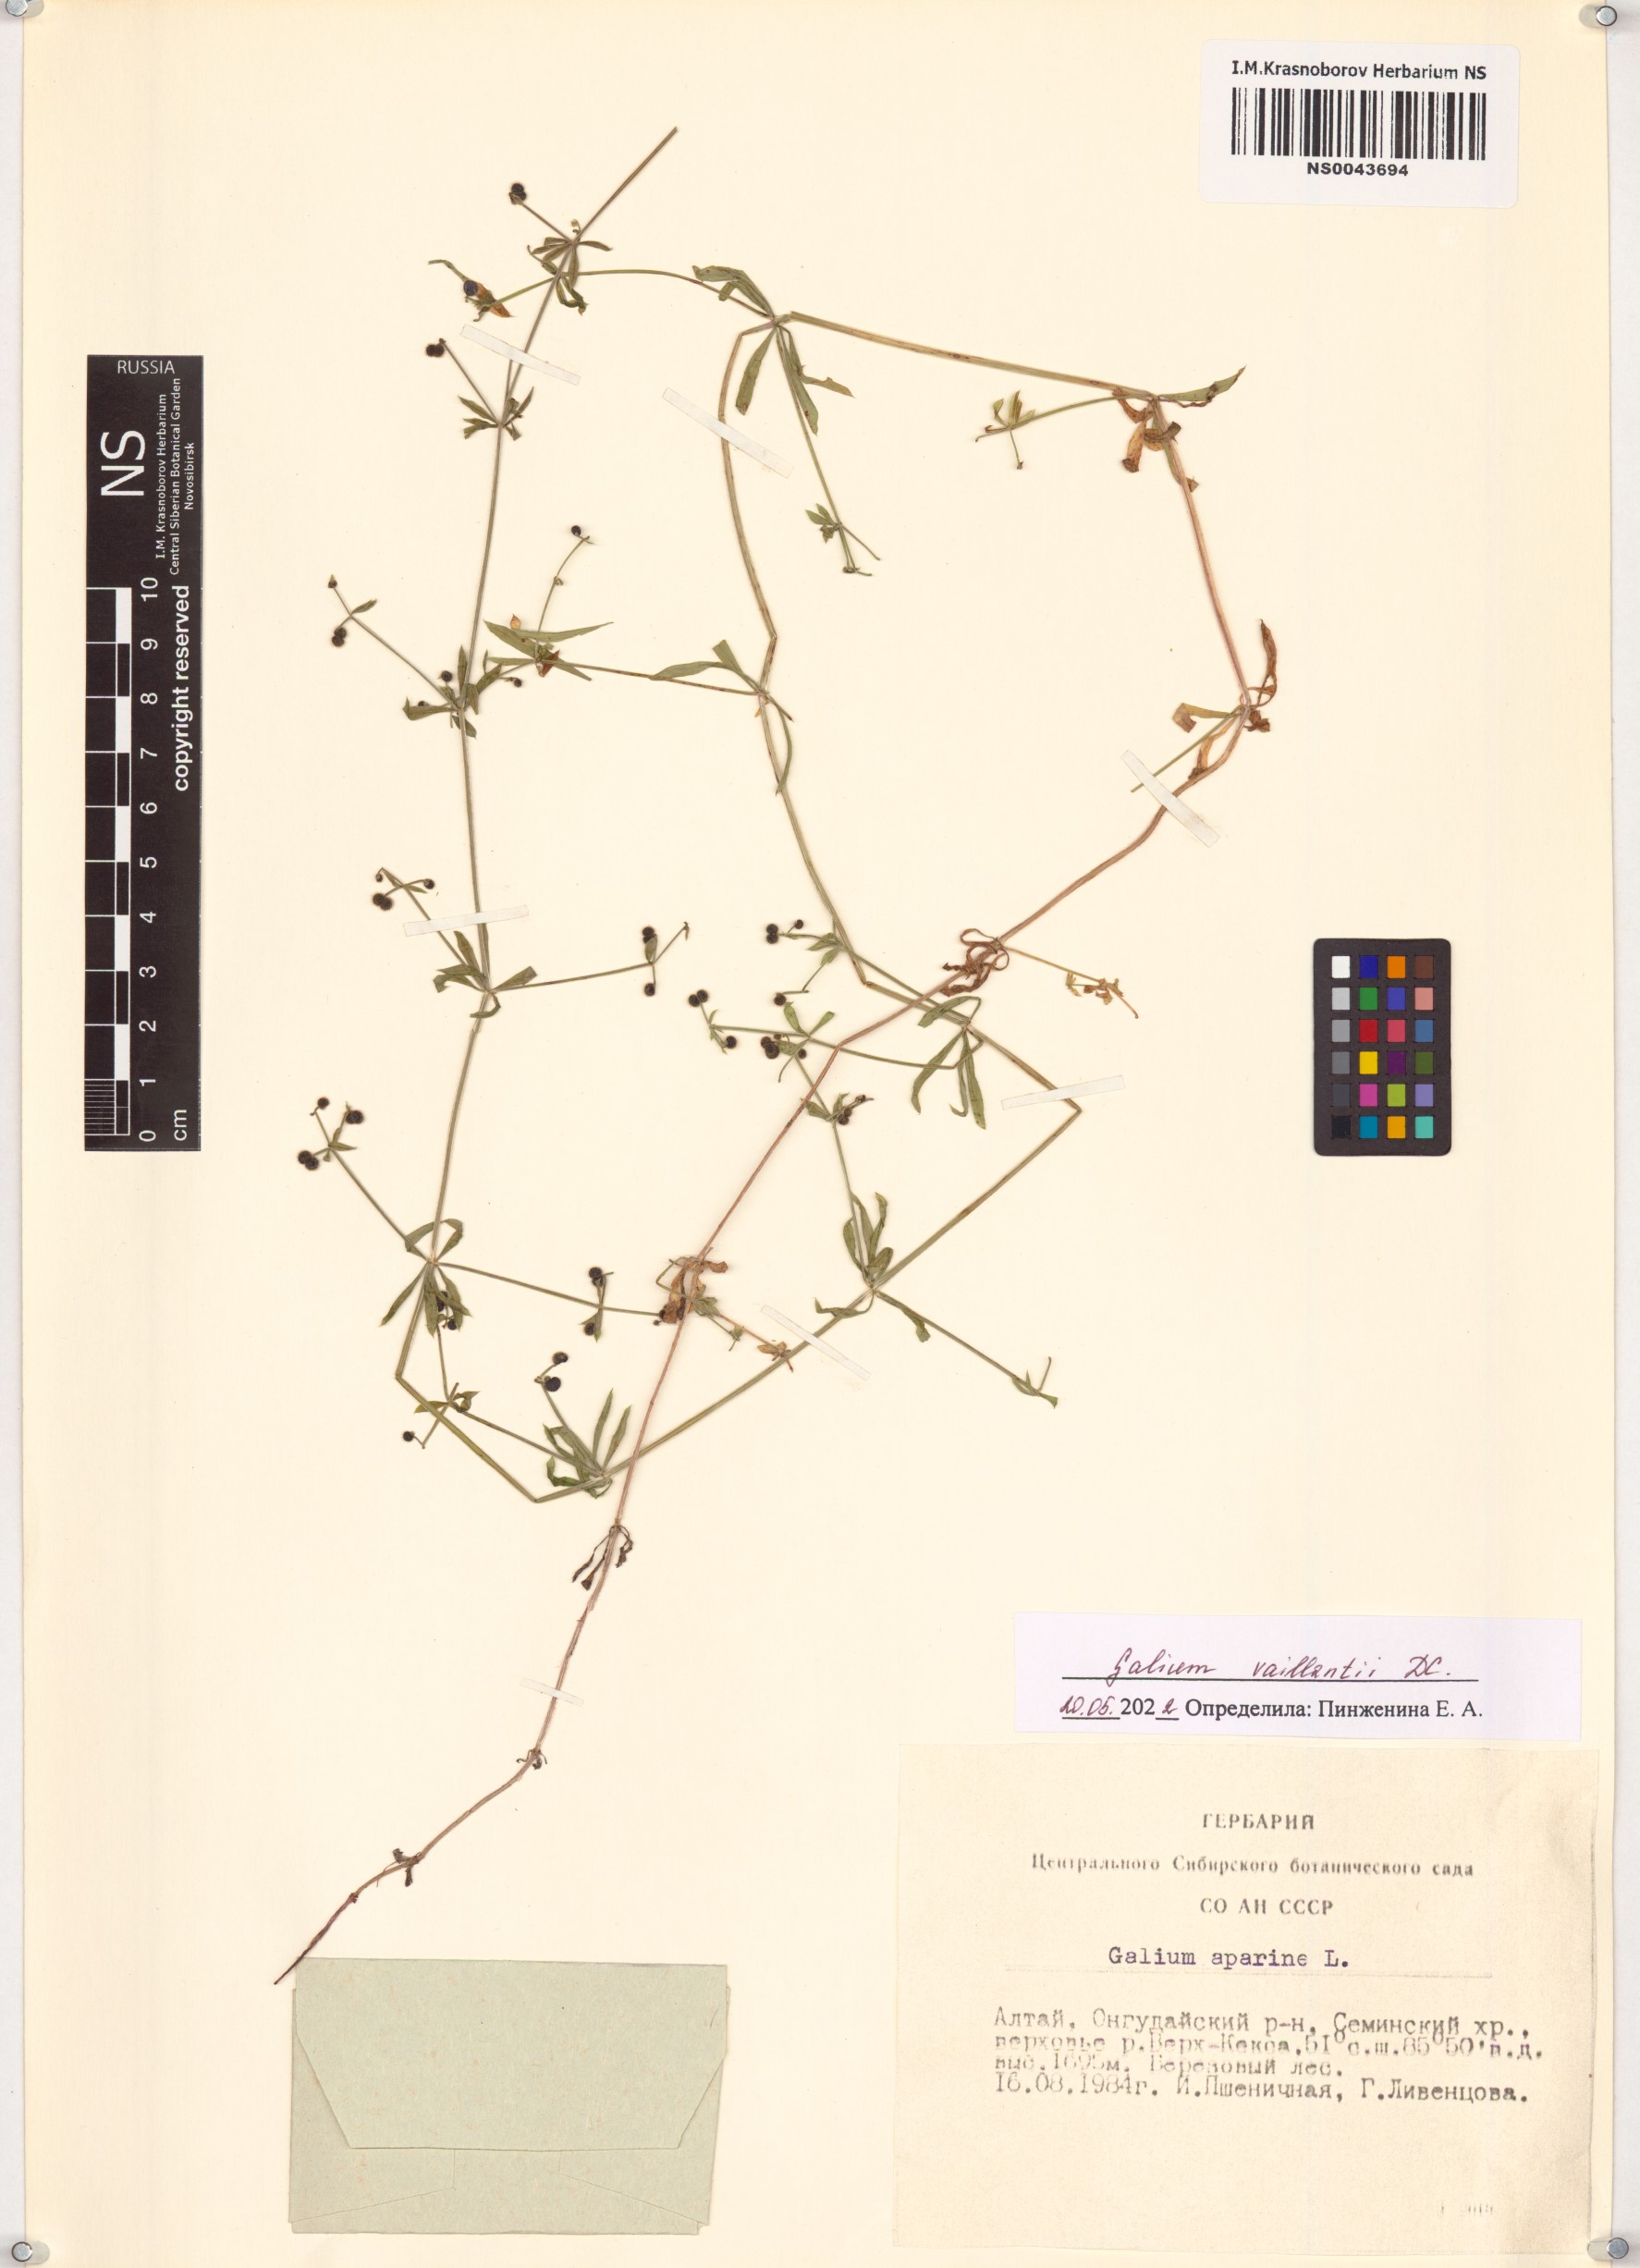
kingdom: Plantae
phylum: Tracheophyta
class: Magnoliopsida
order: Gentianales
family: Rubiaceae
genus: Galium
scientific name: Galium spurium
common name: False cleavers
